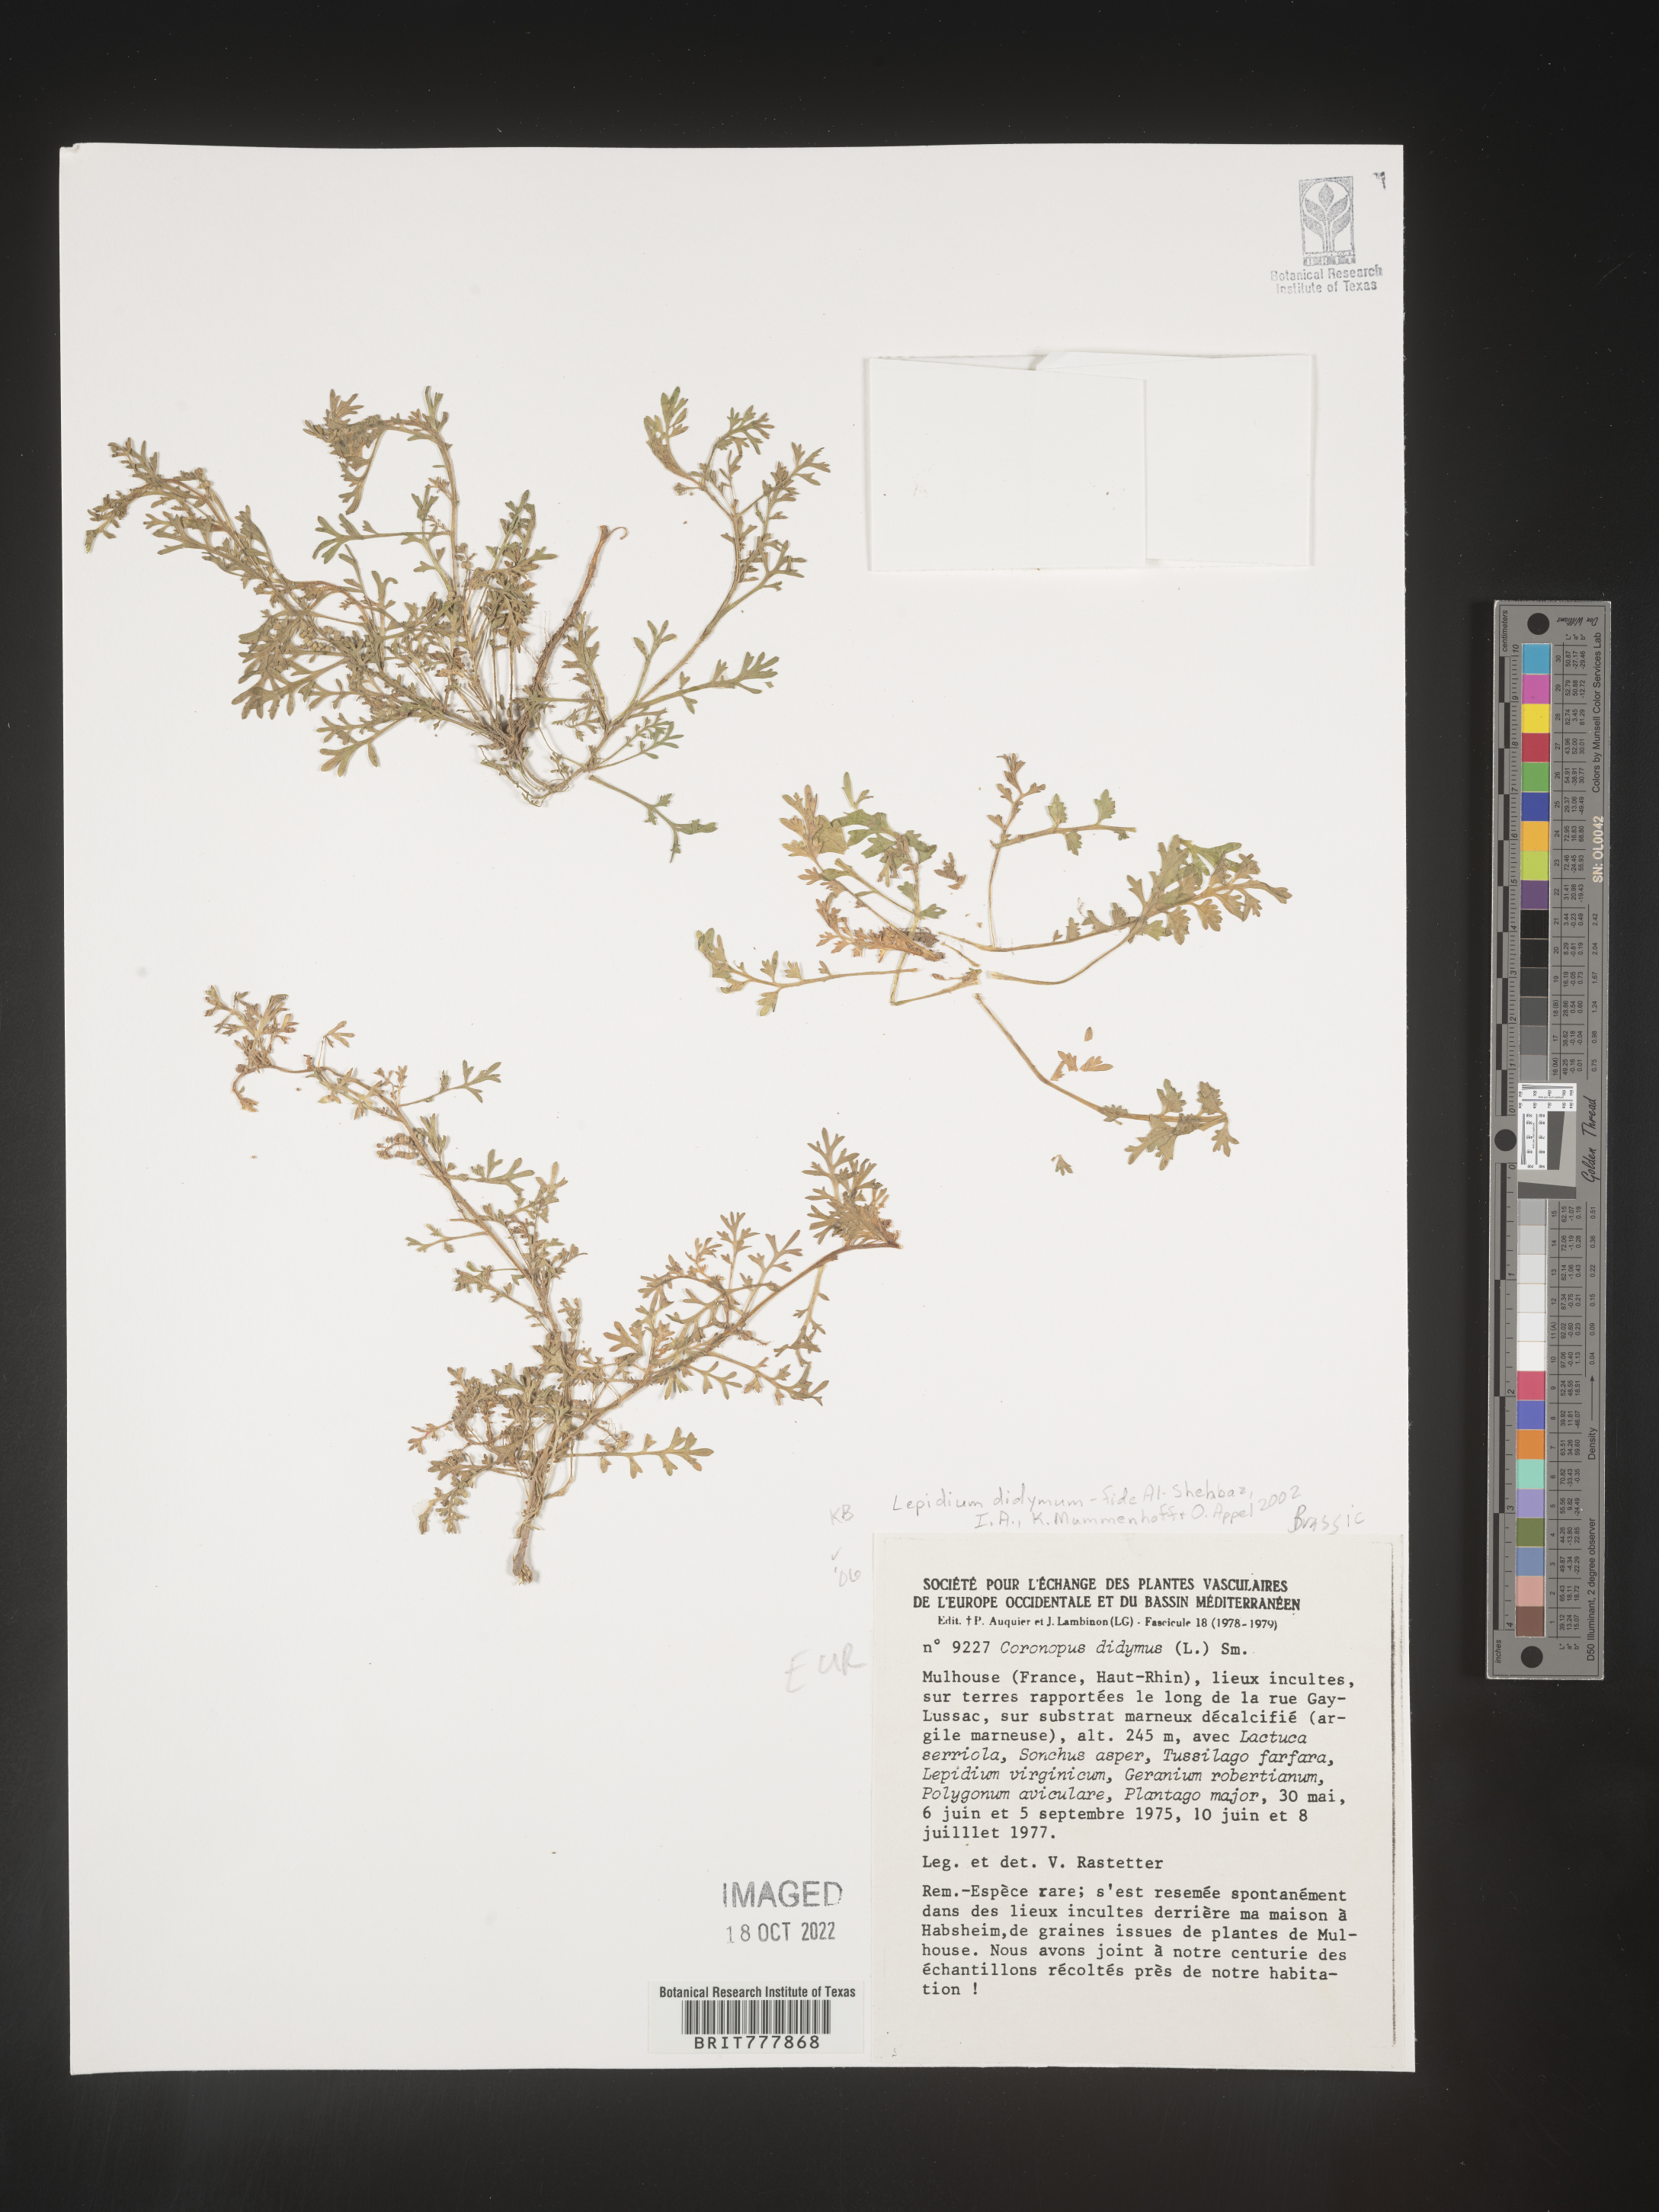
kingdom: Plantae
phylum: Tracheophyta
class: Magnoliopsida
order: Brassicales
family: Brassicaceae
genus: Lepidium
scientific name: Lepidium
